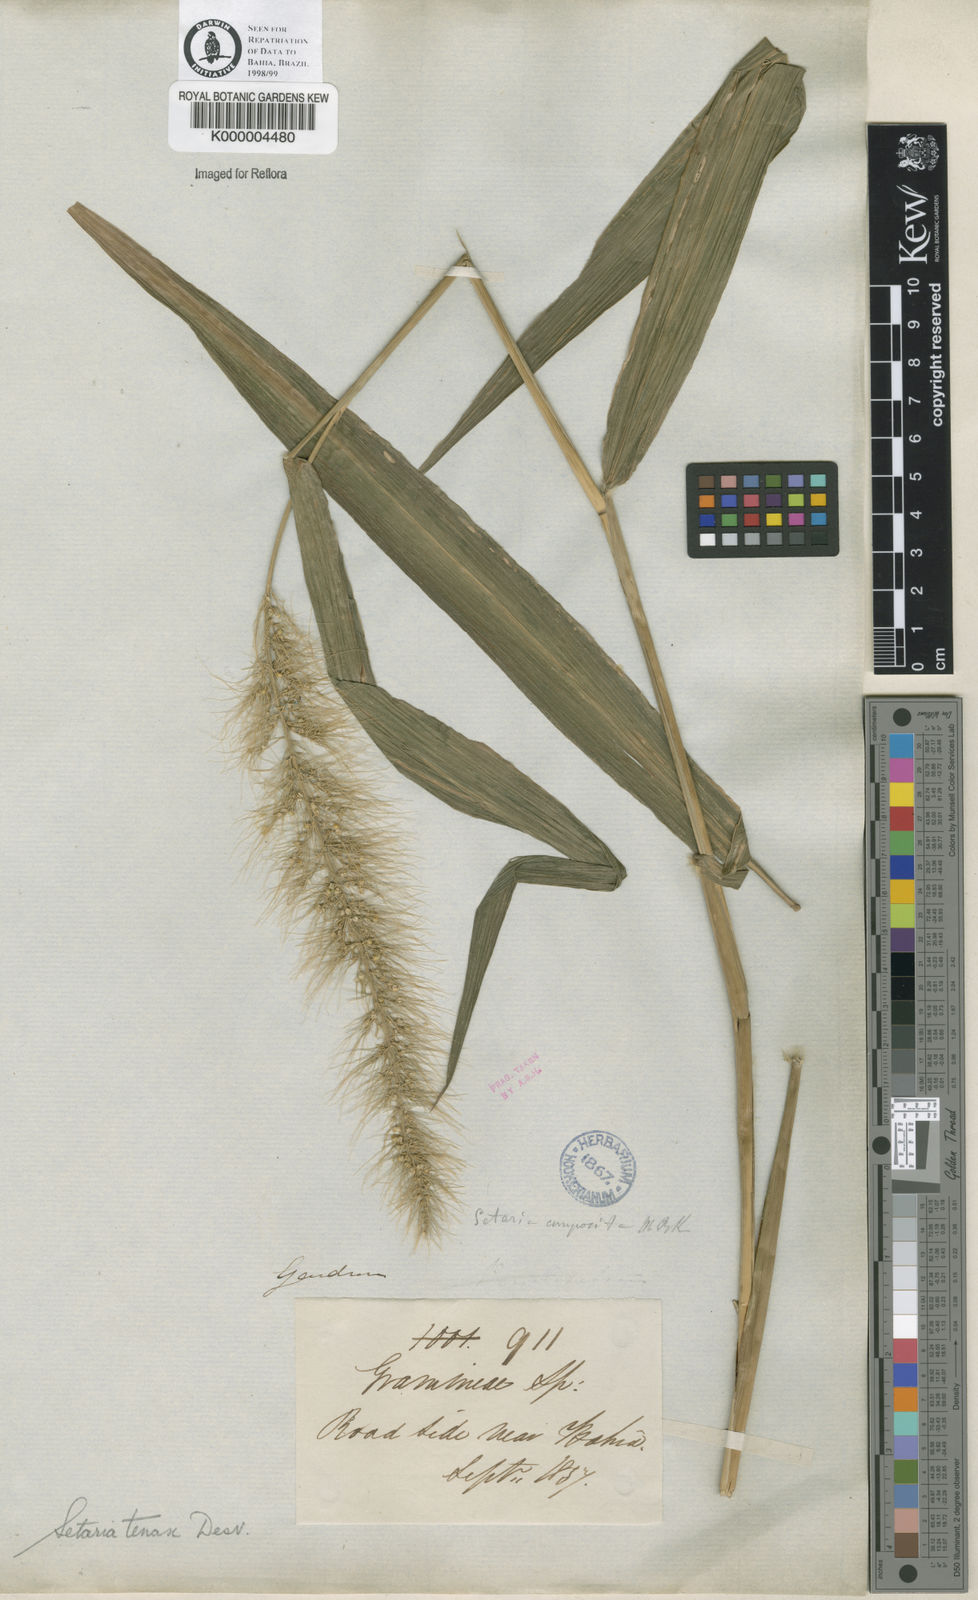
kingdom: Plantae
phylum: Tracheophyta
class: Liliopsida
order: Poales
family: Poaceae
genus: Setaria
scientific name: Setaria tenax
